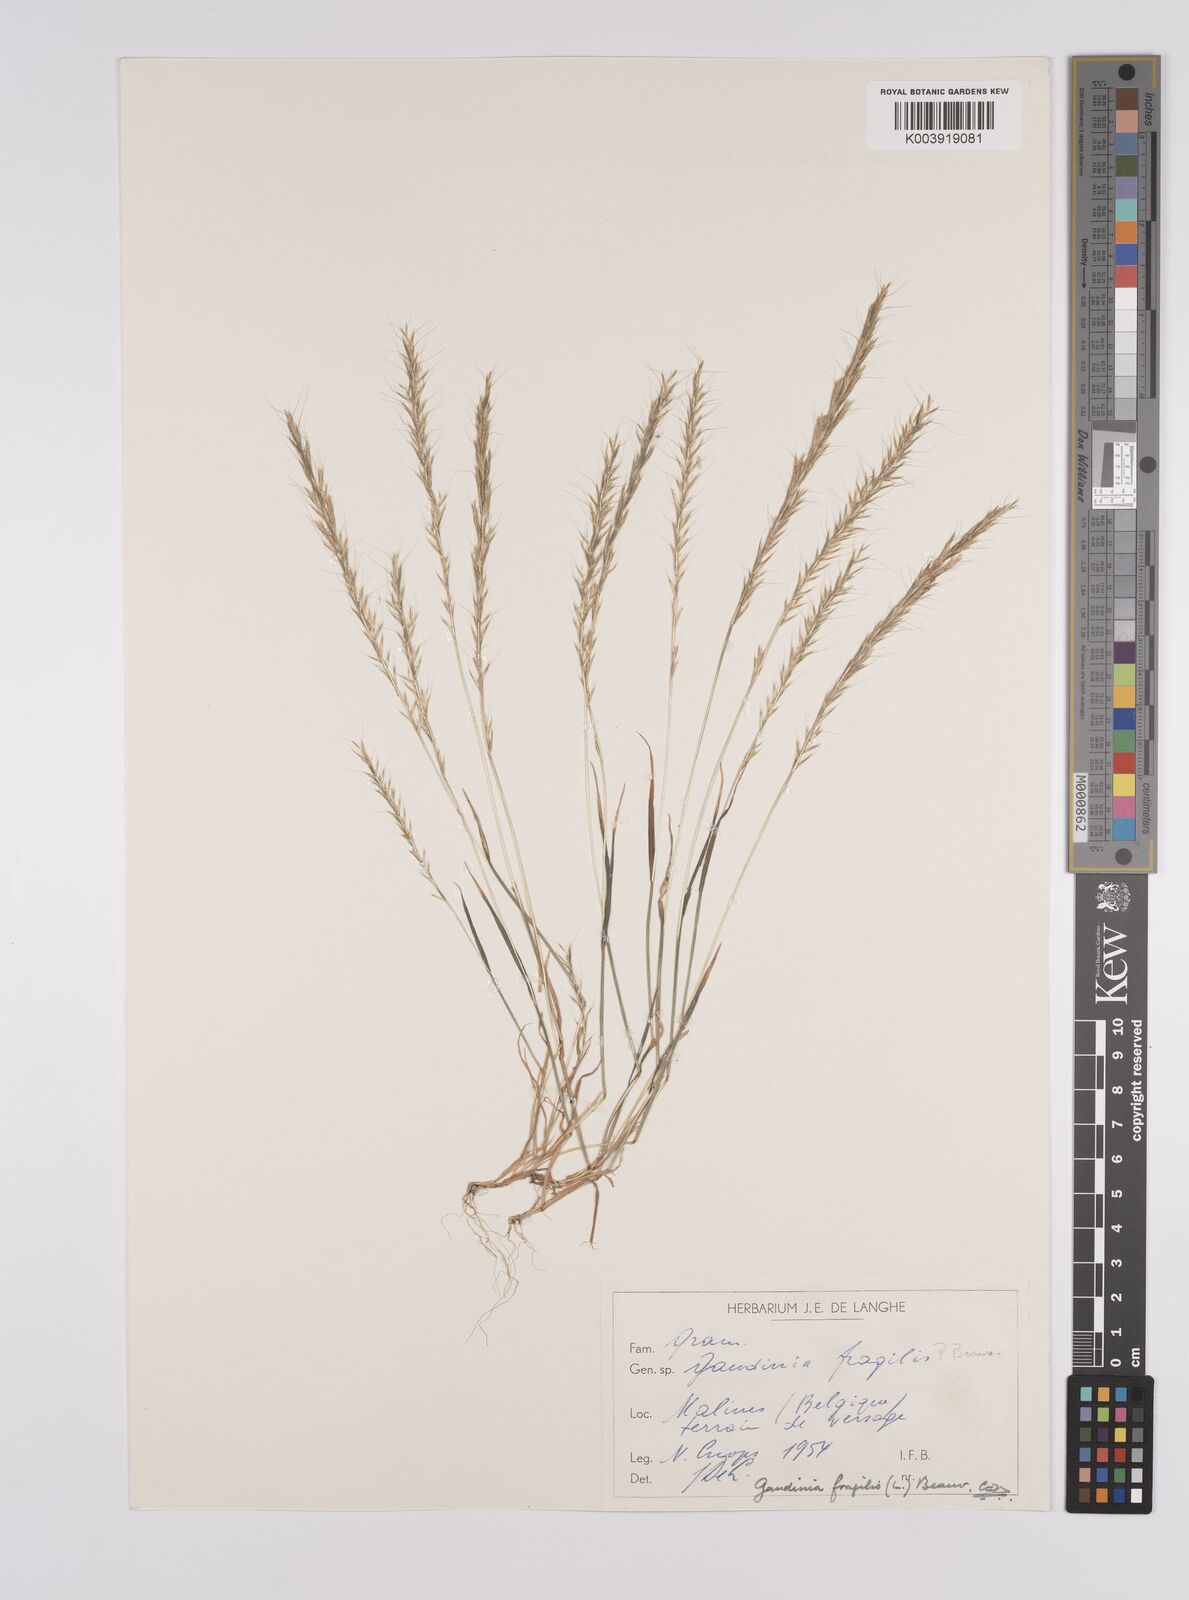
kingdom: Plantae
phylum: Tracheophyta
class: Liliopsida
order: Poales
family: Poaceae
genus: Gaudinia
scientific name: Gaudinia fragilis
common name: French oat-grass
